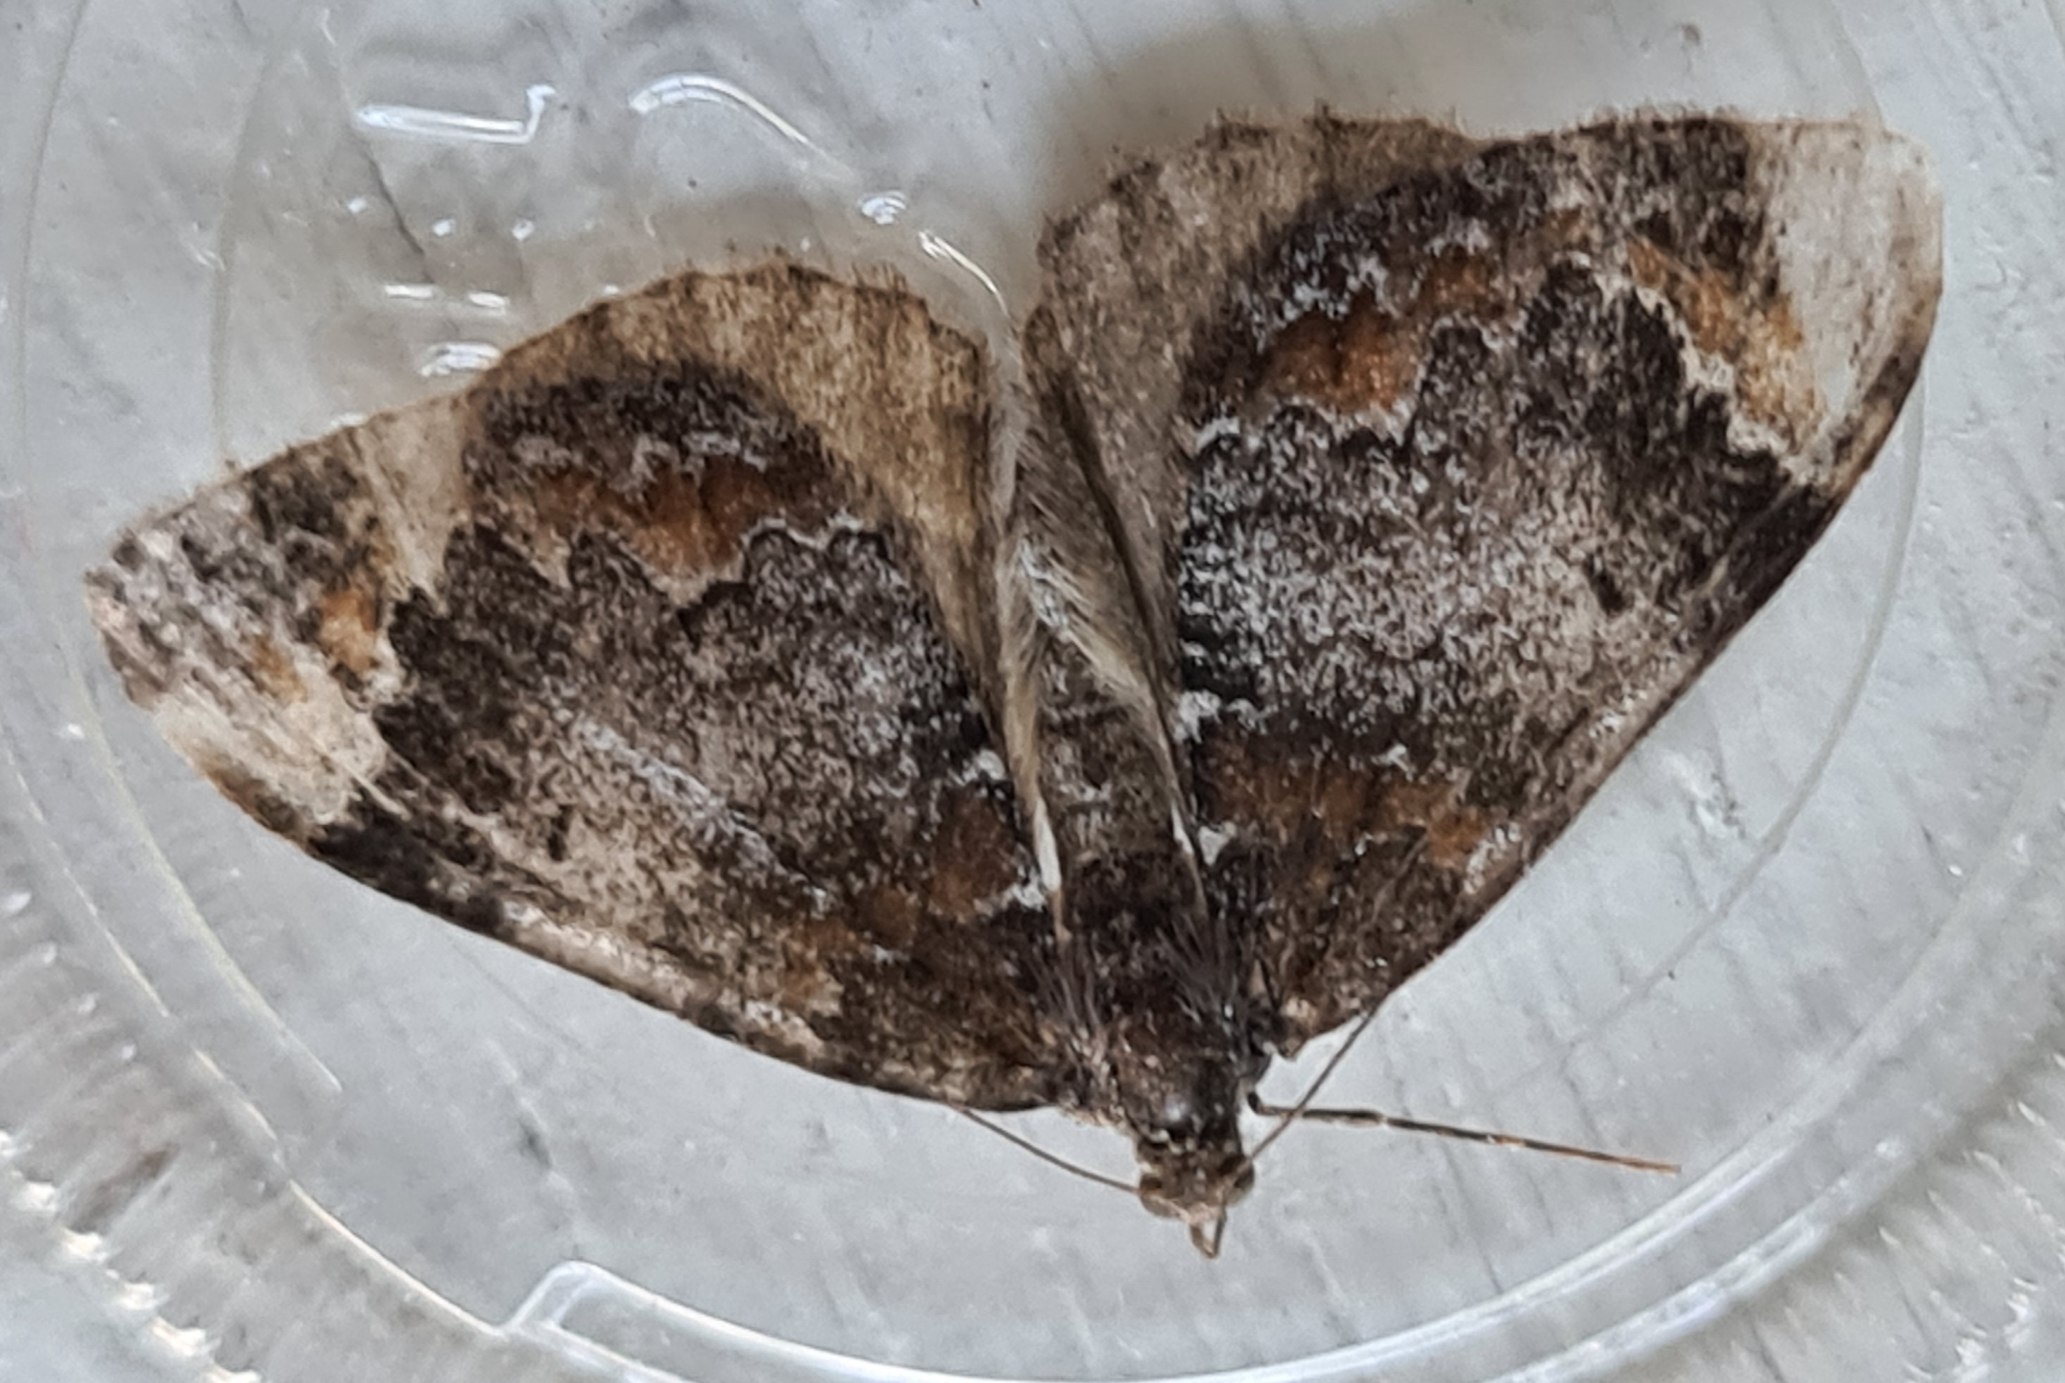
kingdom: Animalia
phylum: Arthropoda
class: Insecta
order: Lepidoptera
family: Geometridae
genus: Dysstroma
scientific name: Dysstroma truncata
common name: Jordbær-bladmåler
